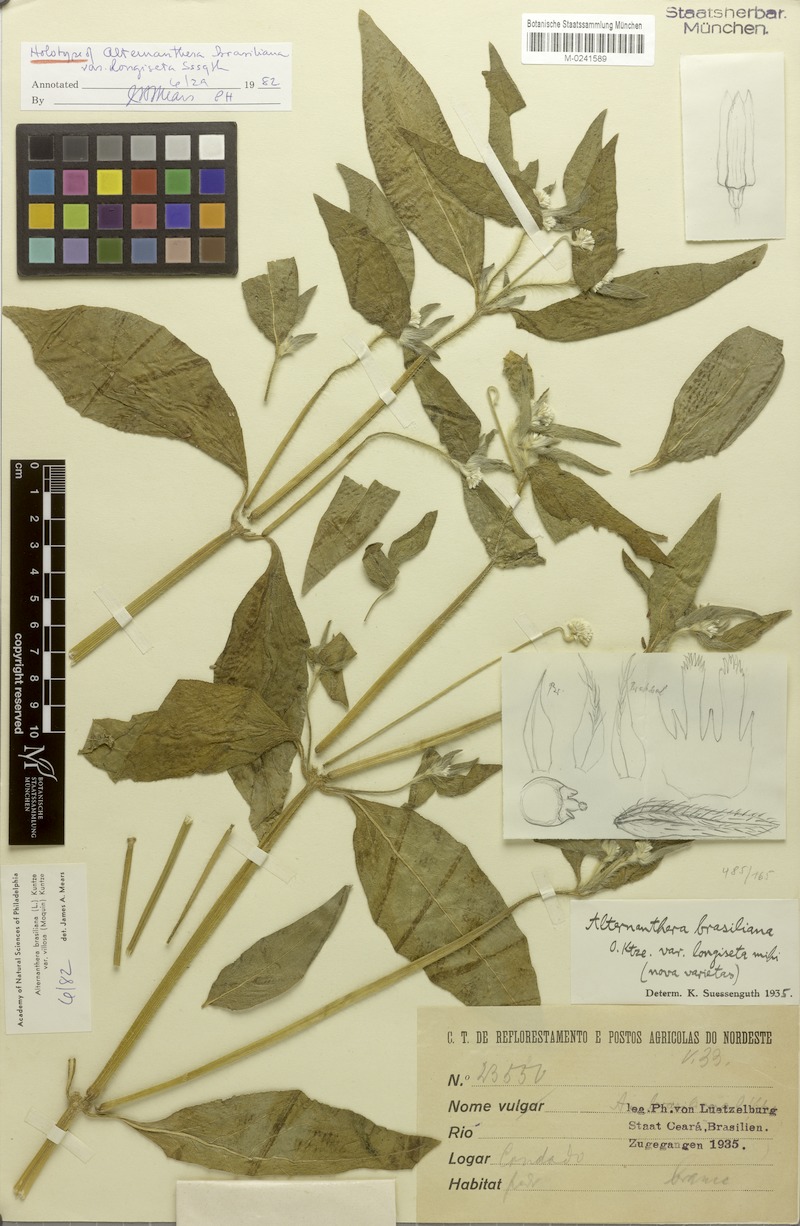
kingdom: Plantae
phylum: Tracheophyta
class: Magnoliopsida
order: Caryophyllales
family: Amaranthaceae
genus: Alternanthera
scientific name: Alternanthera brasiliana
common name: Brazilian joyweed
